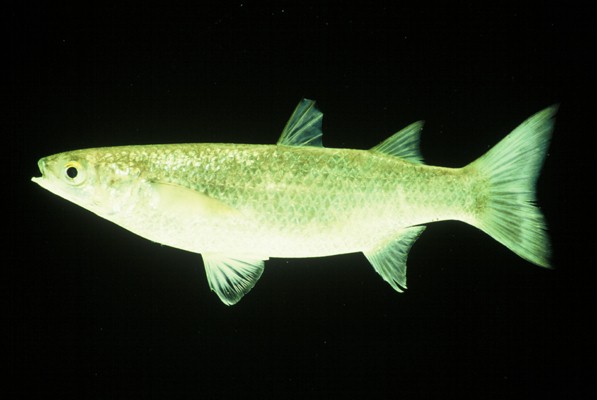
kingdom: Animalia
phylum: Chordata
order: Mugiliformes
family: Mugilidae
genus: Chelon
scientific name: Chelon dumerili
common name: Groovy mullet
